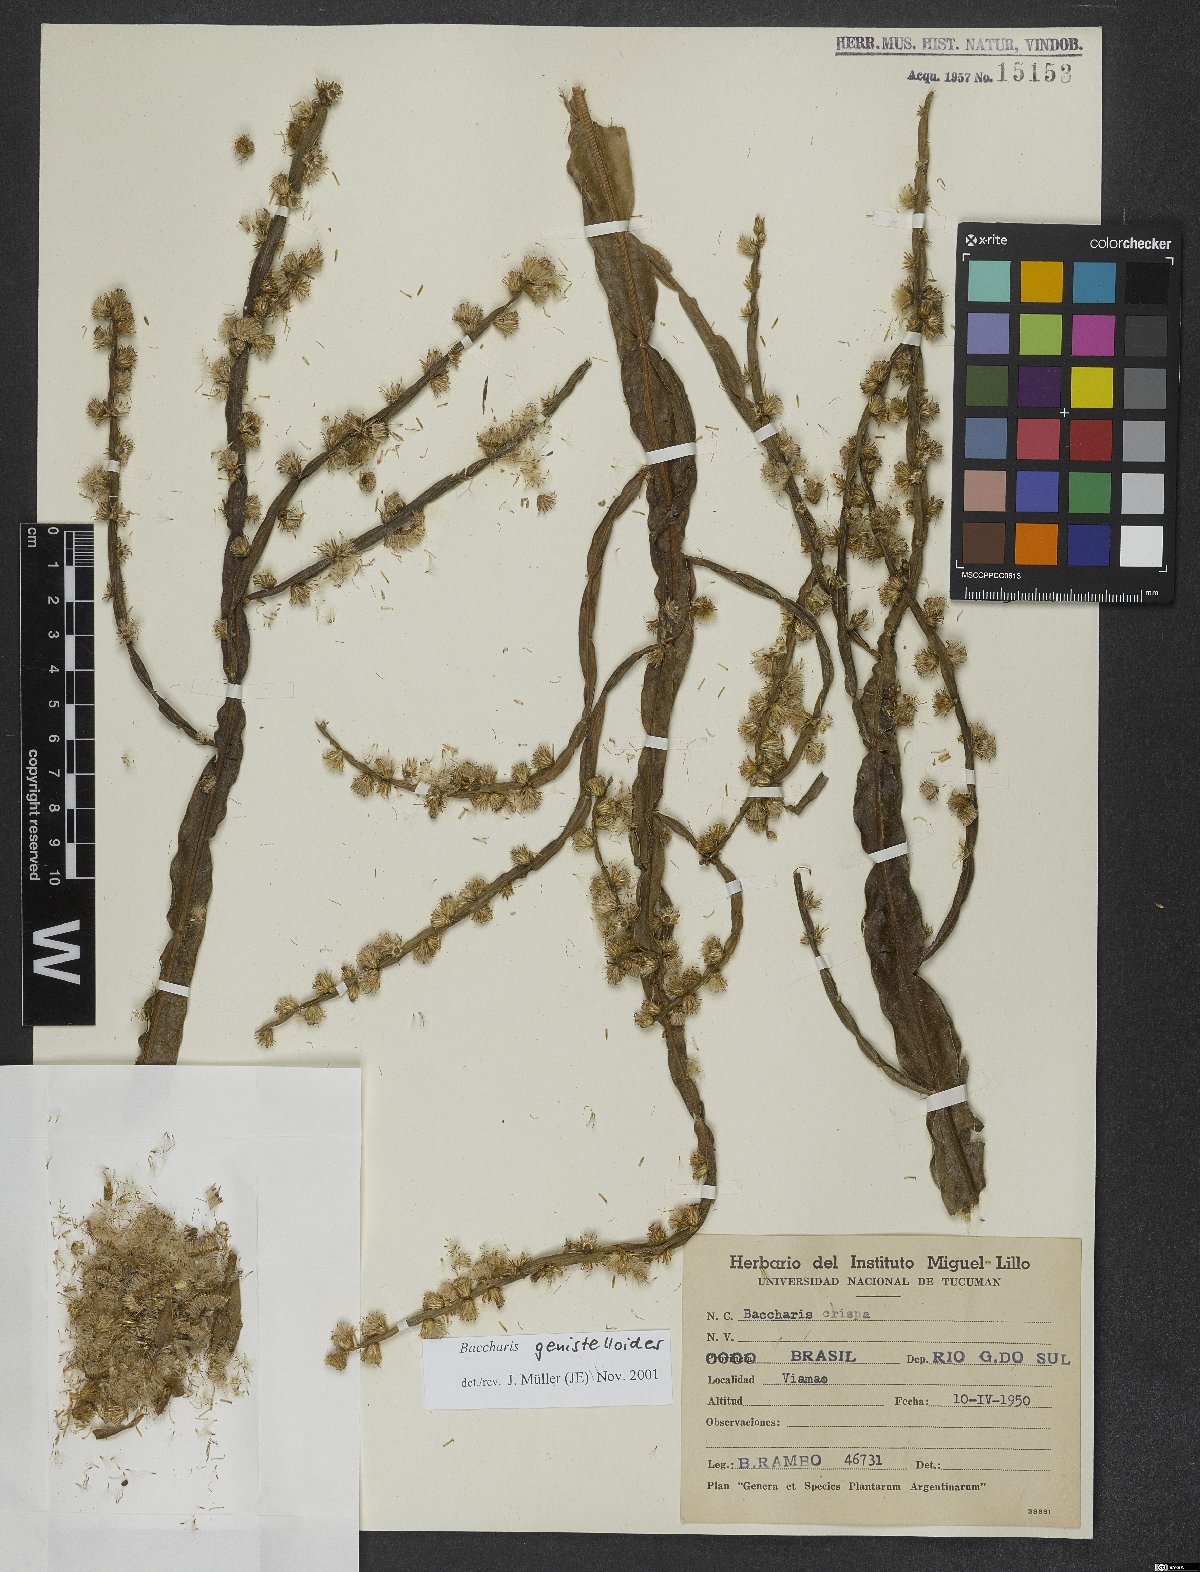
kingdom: Plantae
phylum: Tracheophyta
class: Magnoliopsida
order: Asterales
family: Asteraceae
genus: Baccharis
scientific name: Baccharis genistelloides
